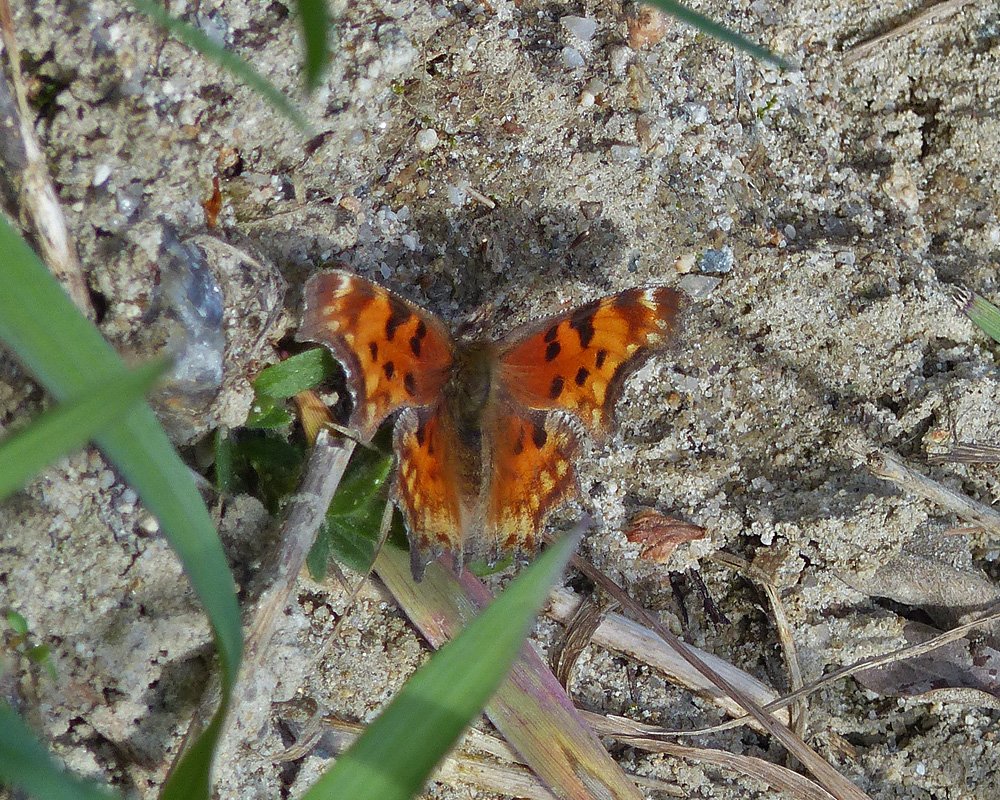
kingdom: Animalia
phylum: Arthropoda
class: Insecta
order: Lepidoptera
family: Nymphalidae
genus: Polygonia
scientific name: Polygonia gracilis
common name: Hoary Comma
